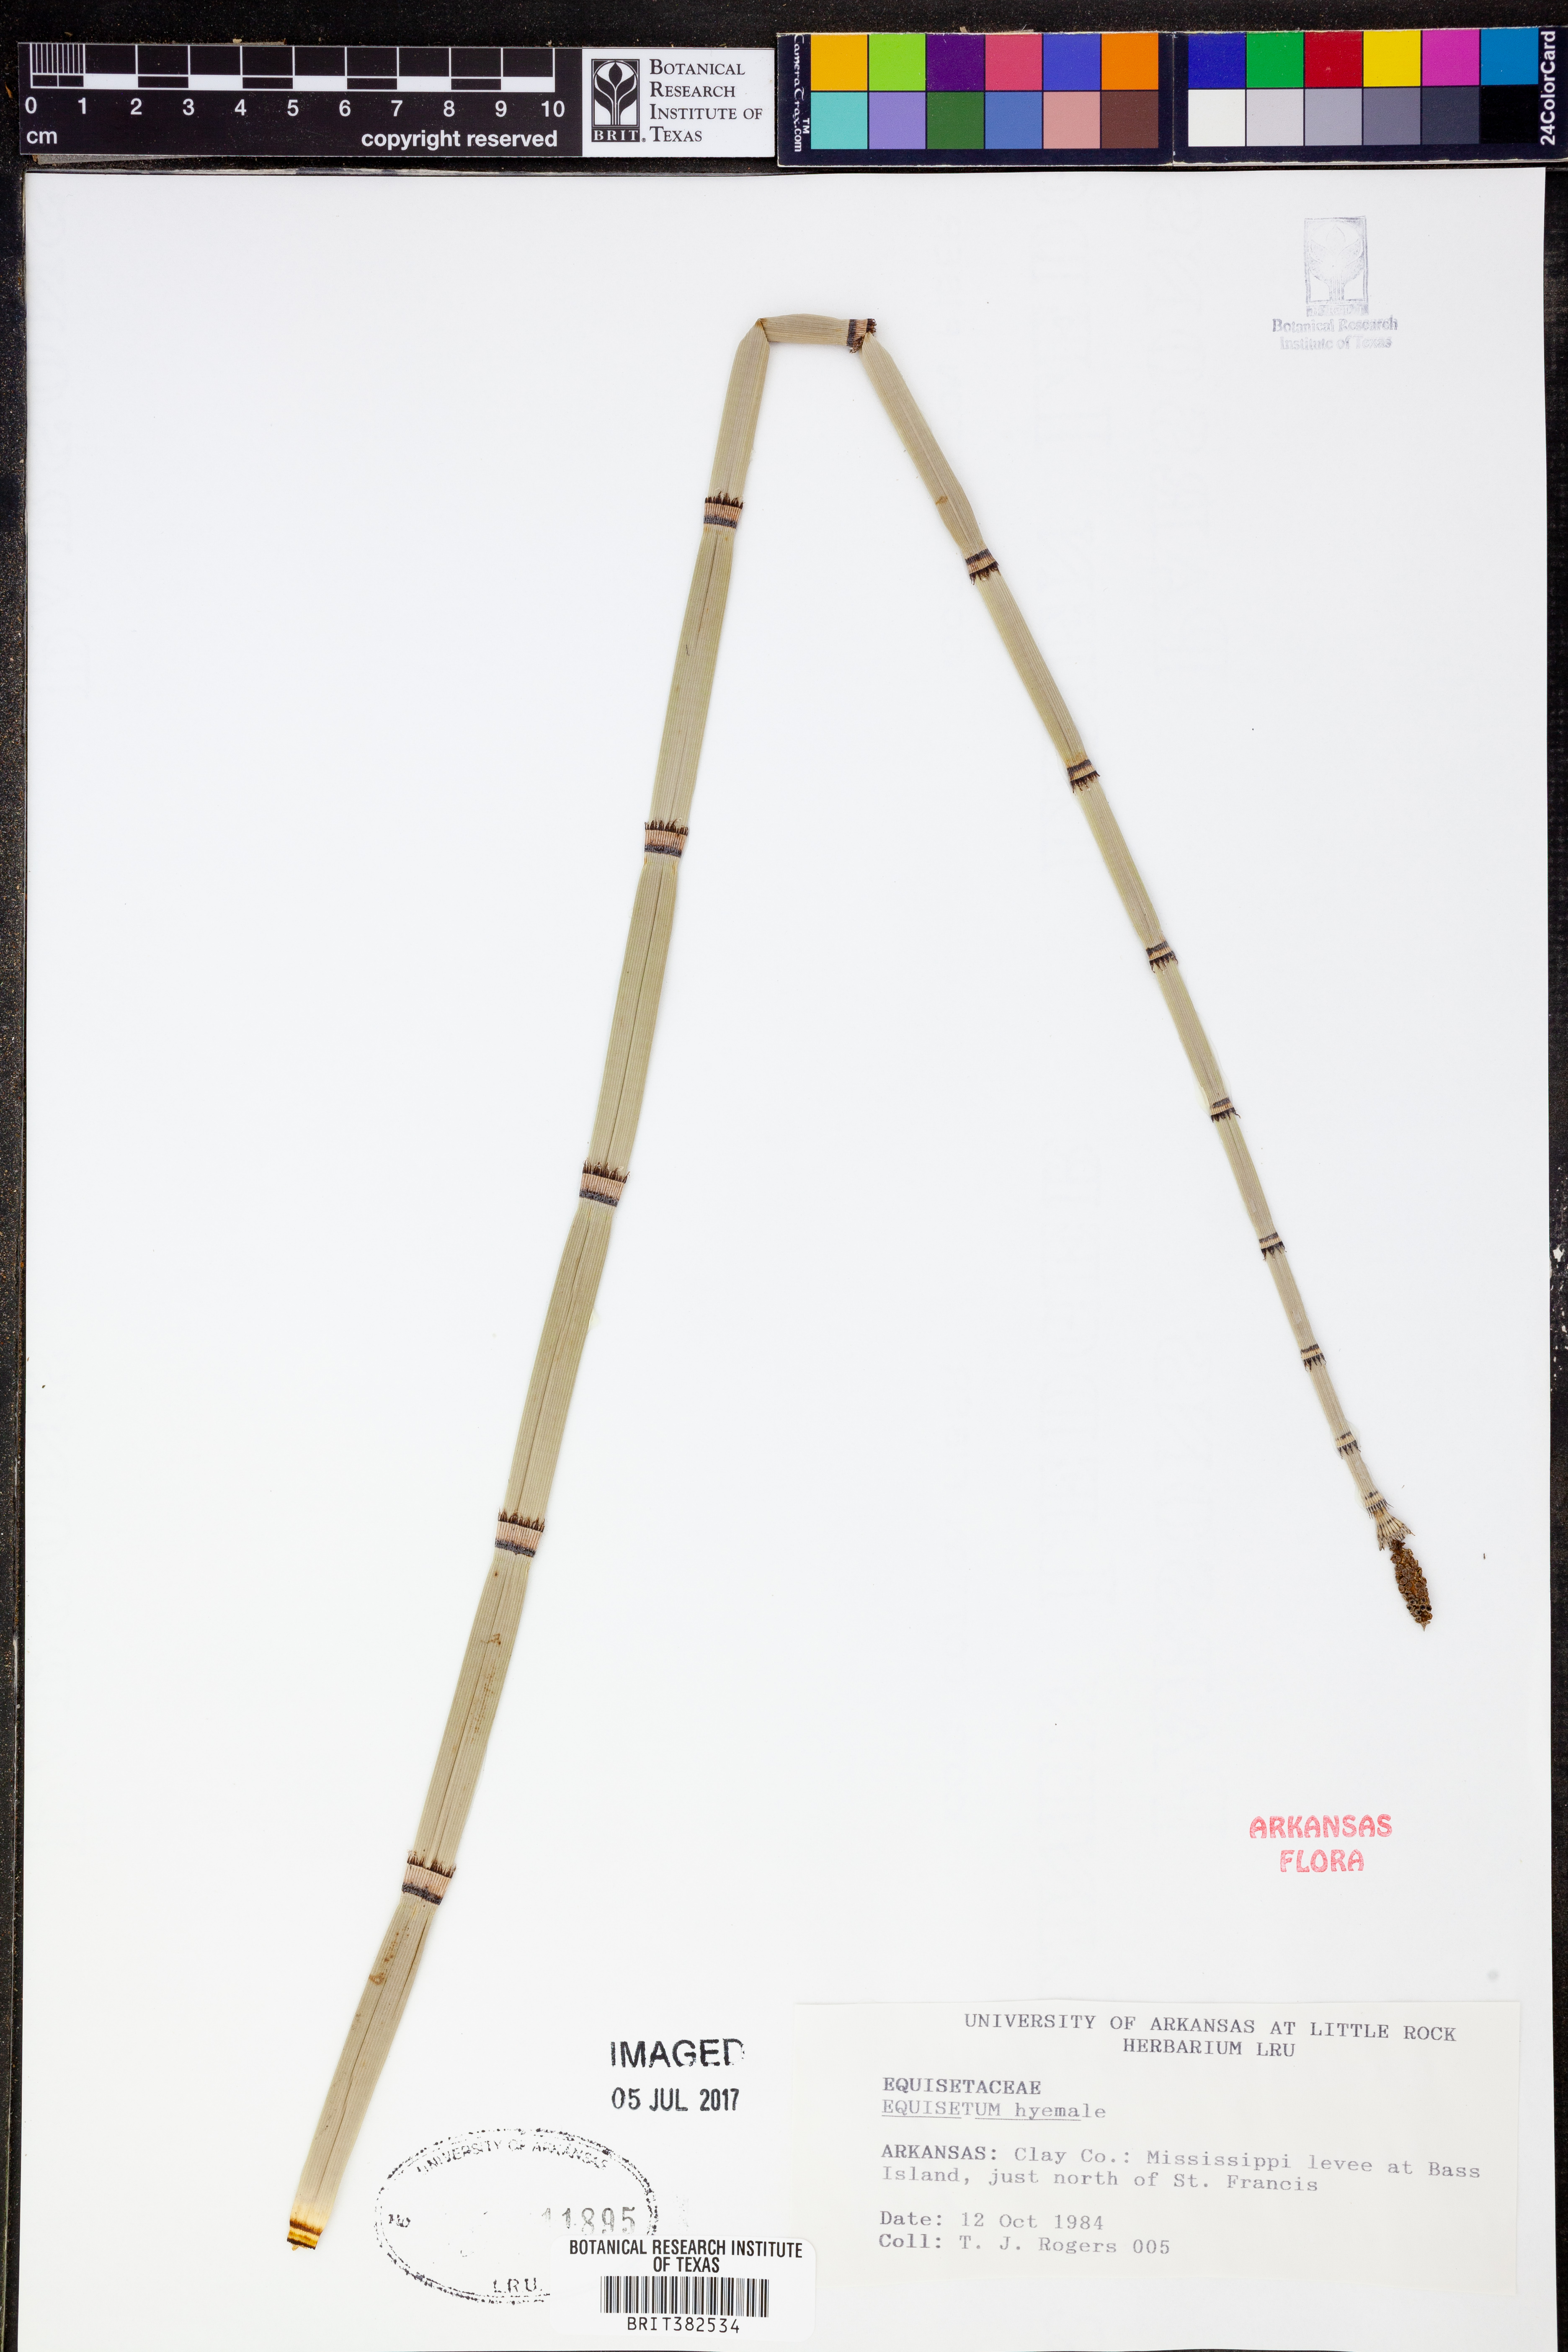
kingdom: Plantae
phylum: Tracheophyta
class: Polypodiopsida
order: Equisetales
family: Equisetaceae
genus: Equisetum
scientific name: Equisetum hyemale
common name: Rough horsetail
